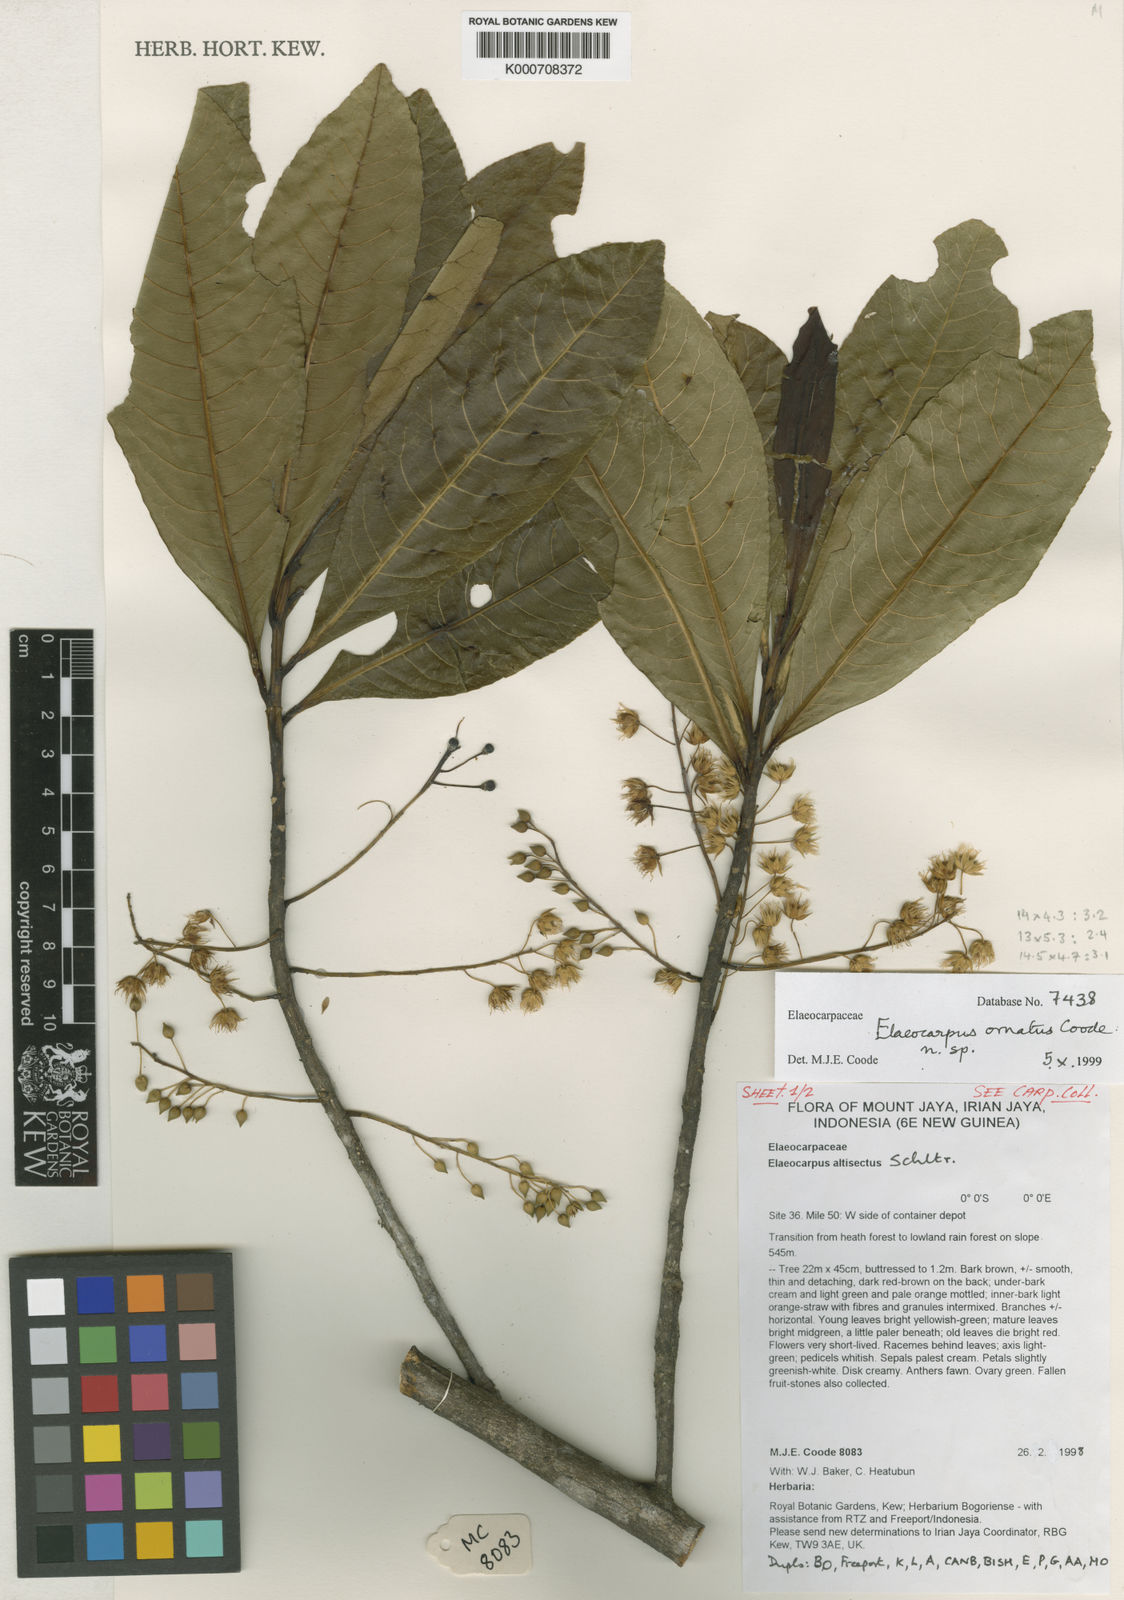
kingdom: Plantae
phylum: Tracheophyta
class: Magnoliopsida
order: Oxalidales
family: Elaeocarpaceae
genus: Elaeocarpus
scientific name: Elaeocarpus ornatus
